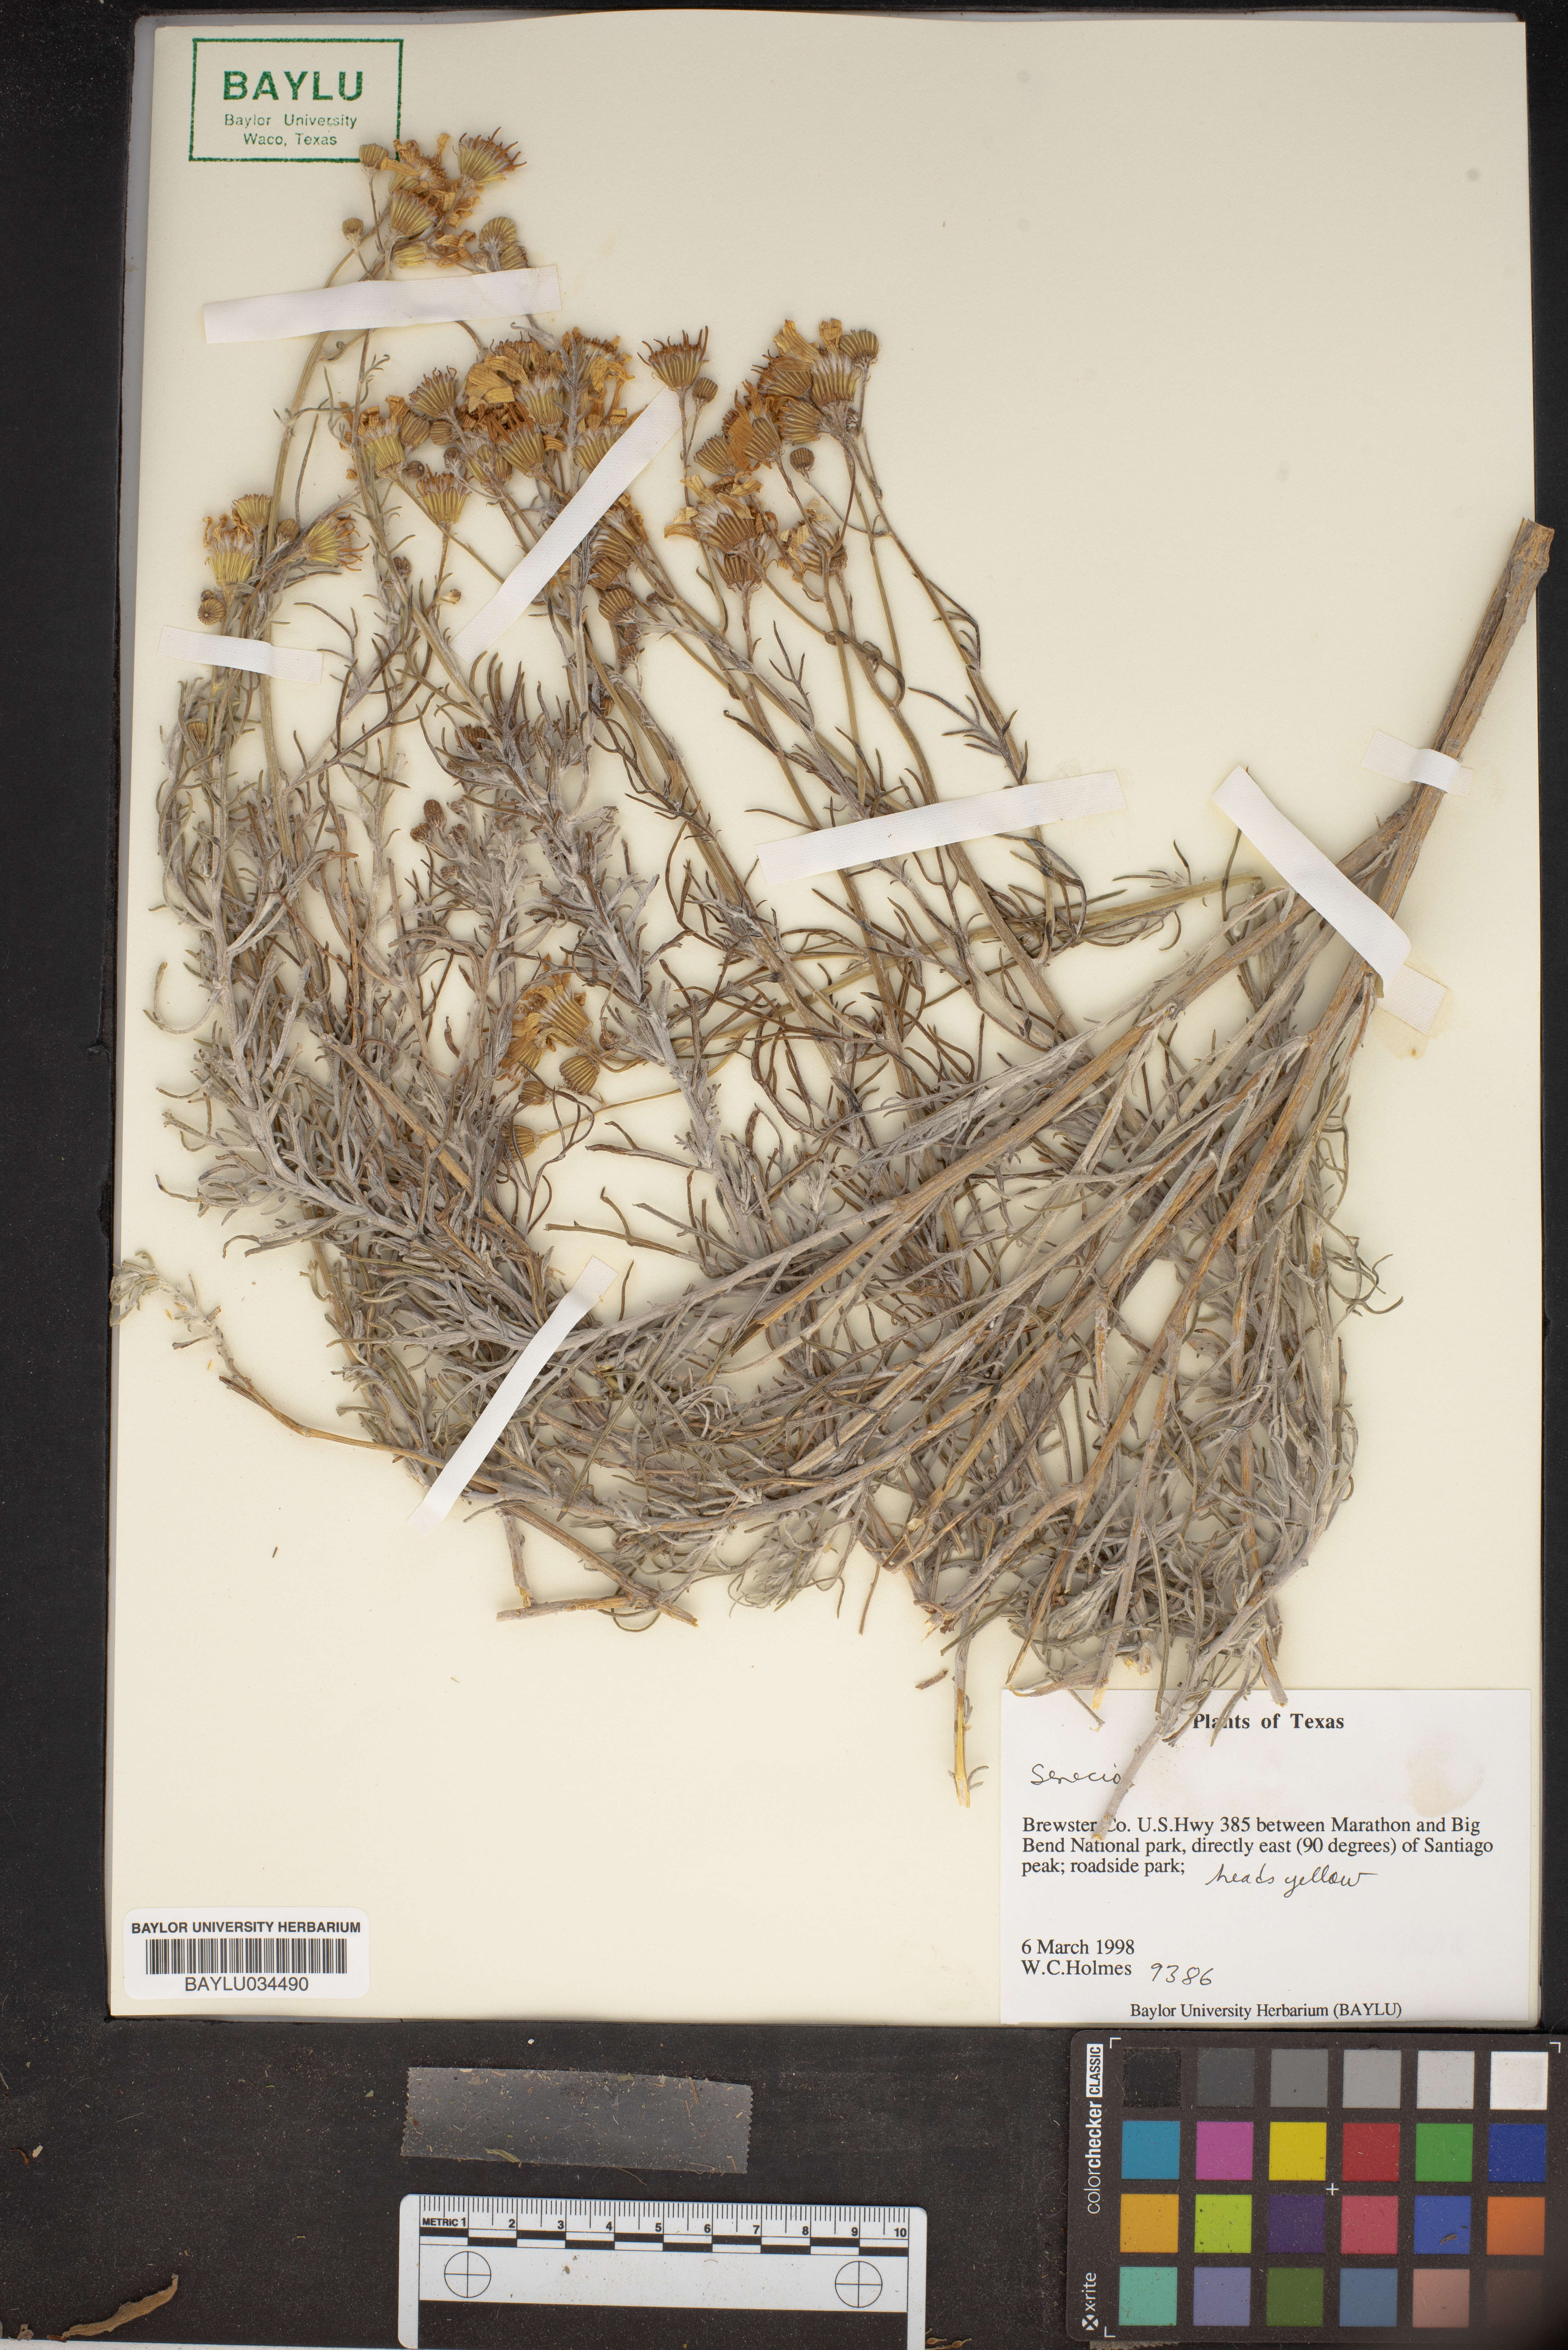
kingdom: Plantae
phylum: Tracheophyta
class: Magnoliopsida
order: Asterales
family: Asteraceae
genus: Senecio
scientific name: Senecio
